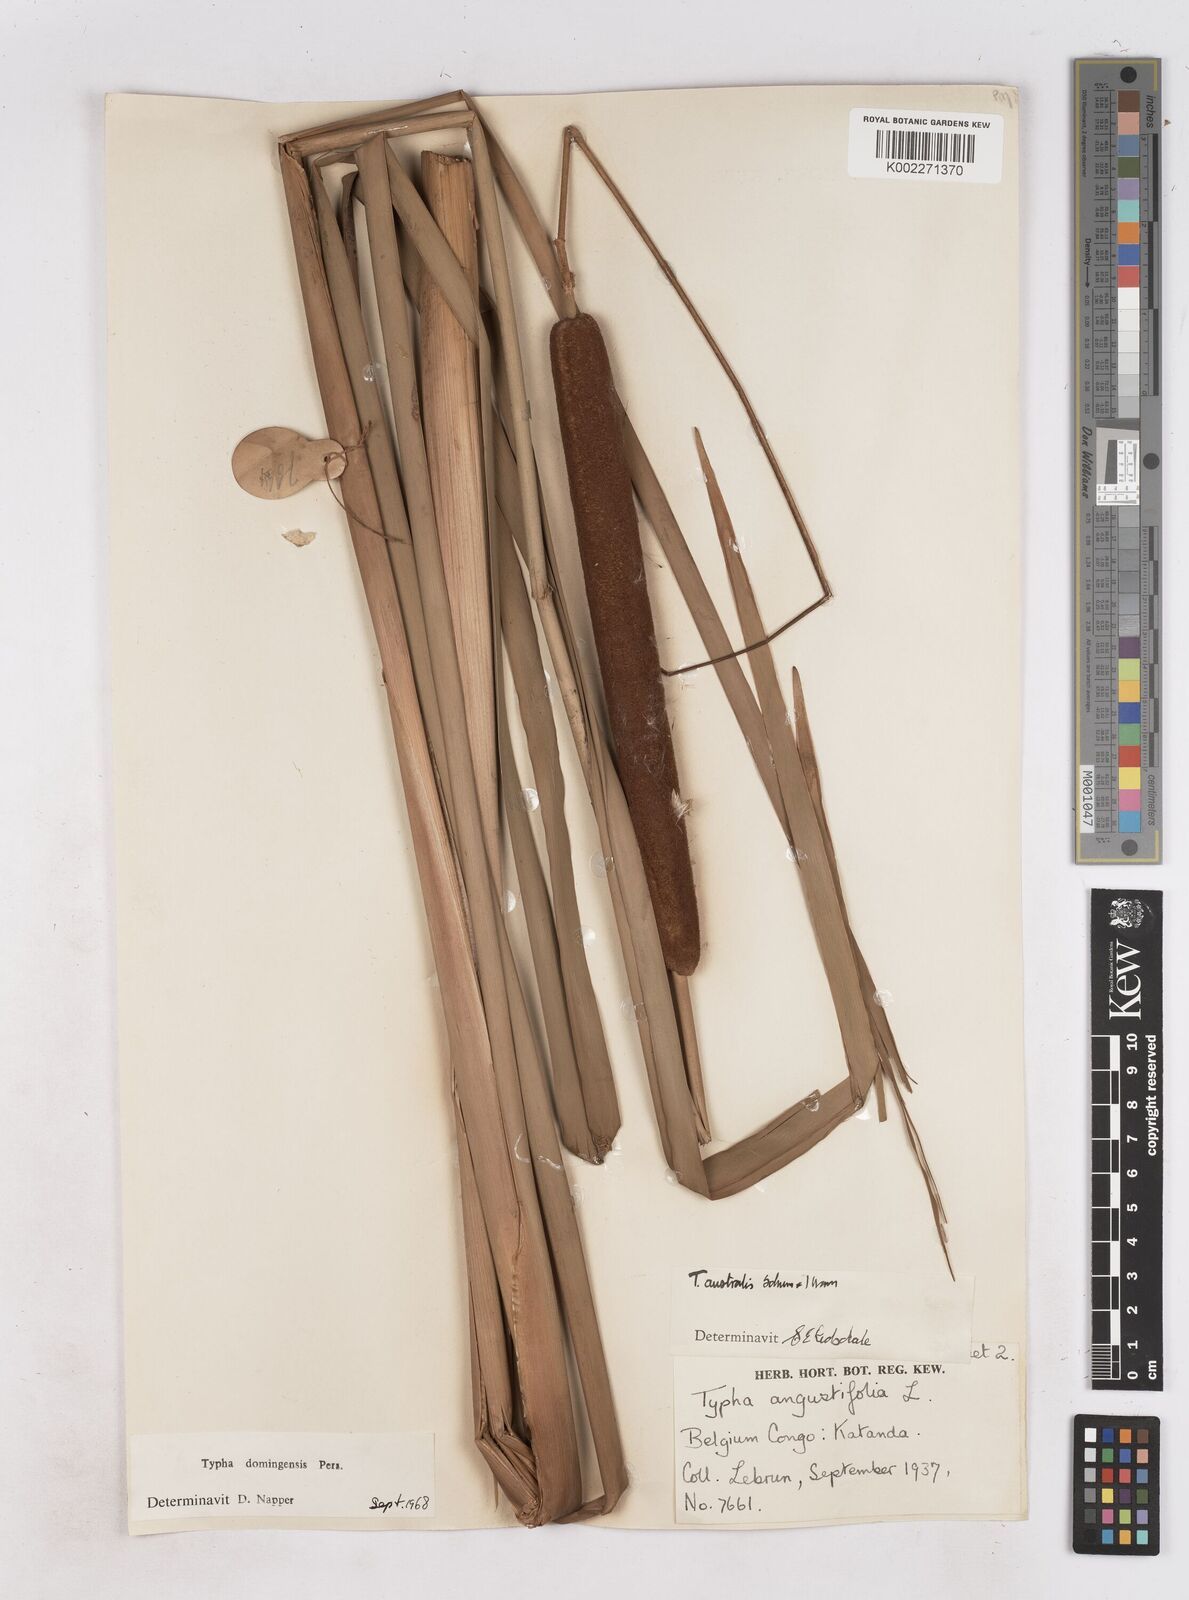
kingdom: Plantae
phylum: Tracheophyta
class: Liliopsida
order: Poales
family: Typhaceae
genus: Typha
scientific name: Typha domingensis
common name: Southern cattail
